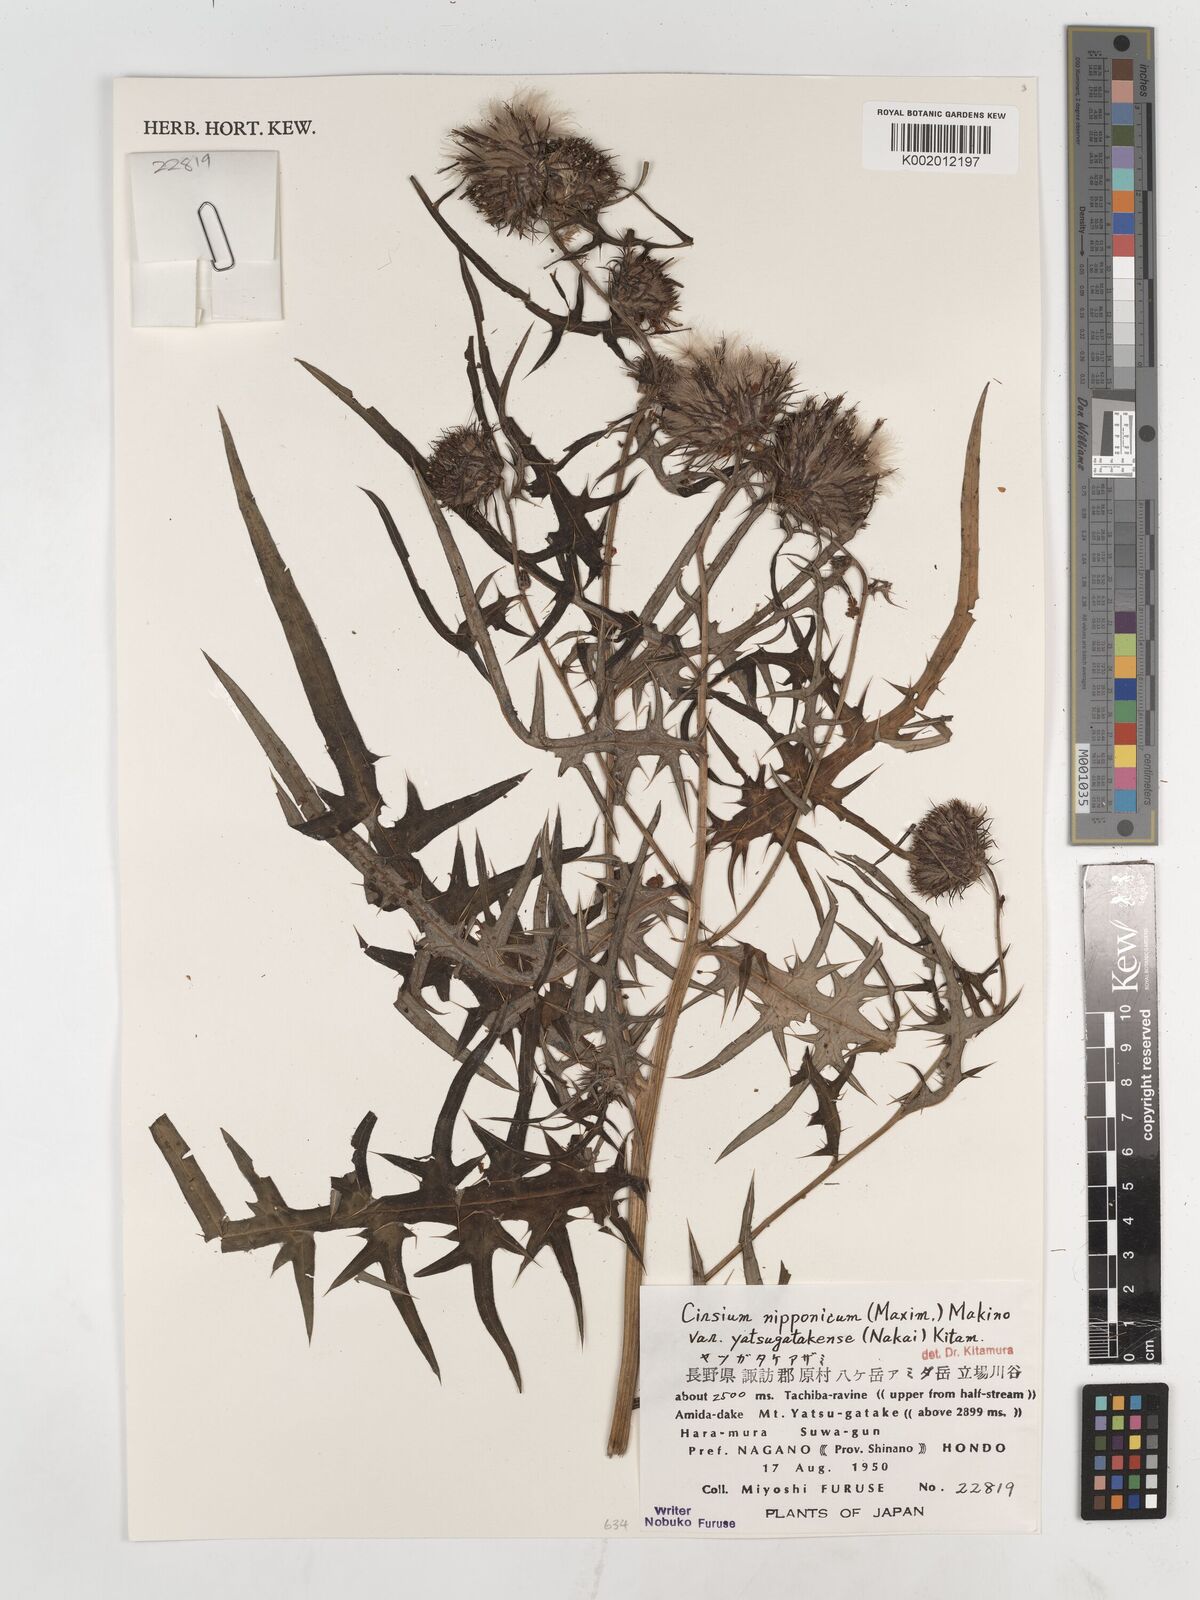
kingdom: Plantae
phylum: Tracheophyta
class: Magnoliopsida
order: Asterales
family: Asteraceae
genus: Cirsium
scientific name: Cirsium nipponicum
